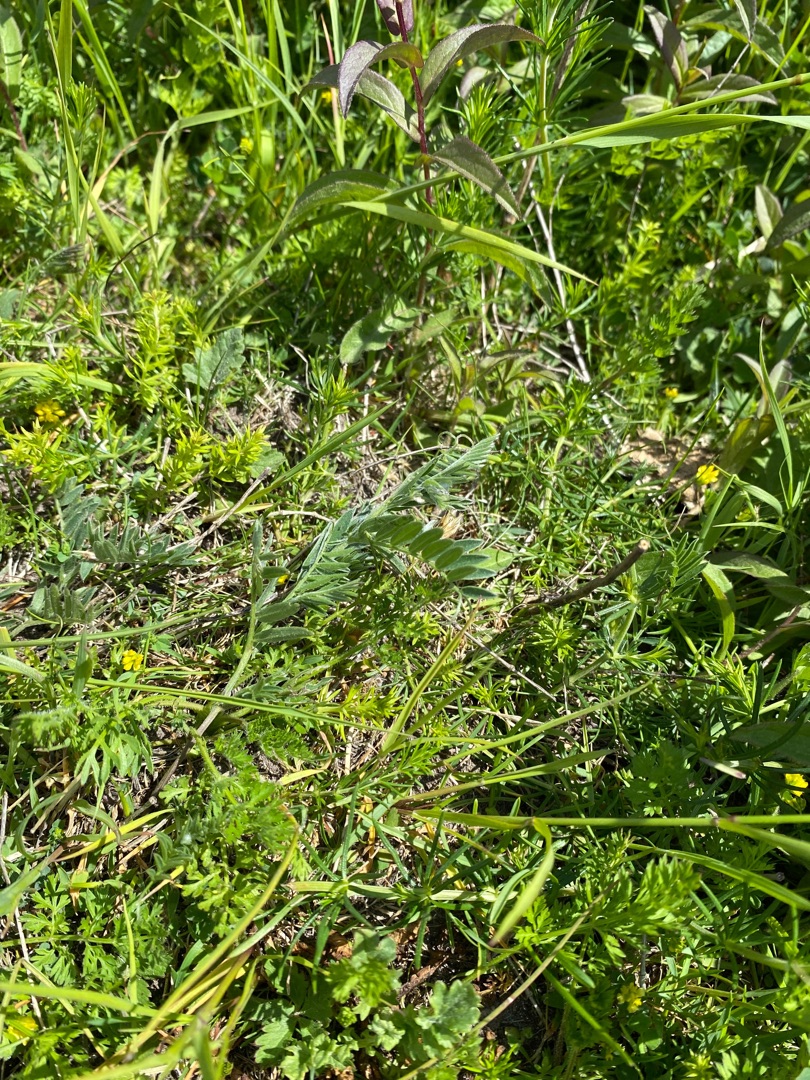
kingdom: Plantae
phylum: Tracheophyta
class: Magnoliopsida
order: Fabales
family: Fabaceae
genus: Vicia
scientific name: Vicia cracca
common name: Muse-vikke
